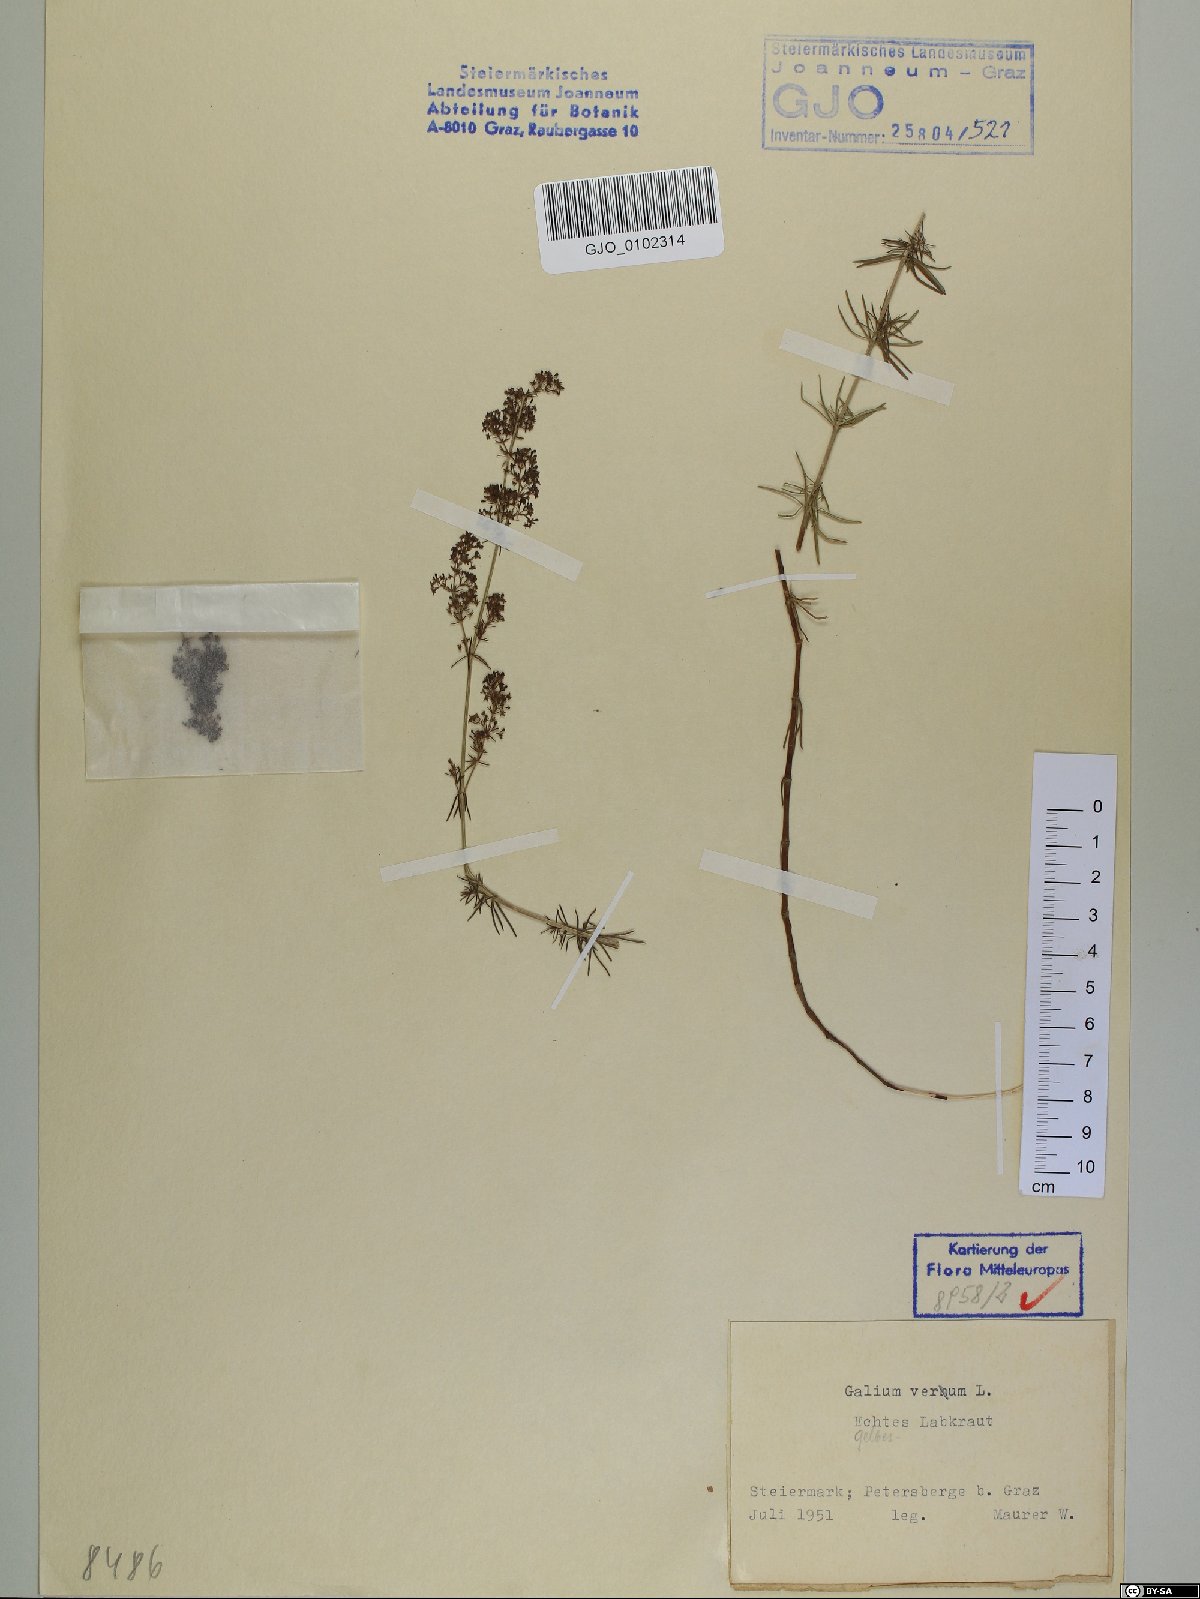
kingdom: Plantae
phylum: Tracheophyta
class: Magnoliopsida
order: Gentianales
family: Rubiaceae
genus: Galium
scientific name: Galium verum
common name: Lady's bedstraw
